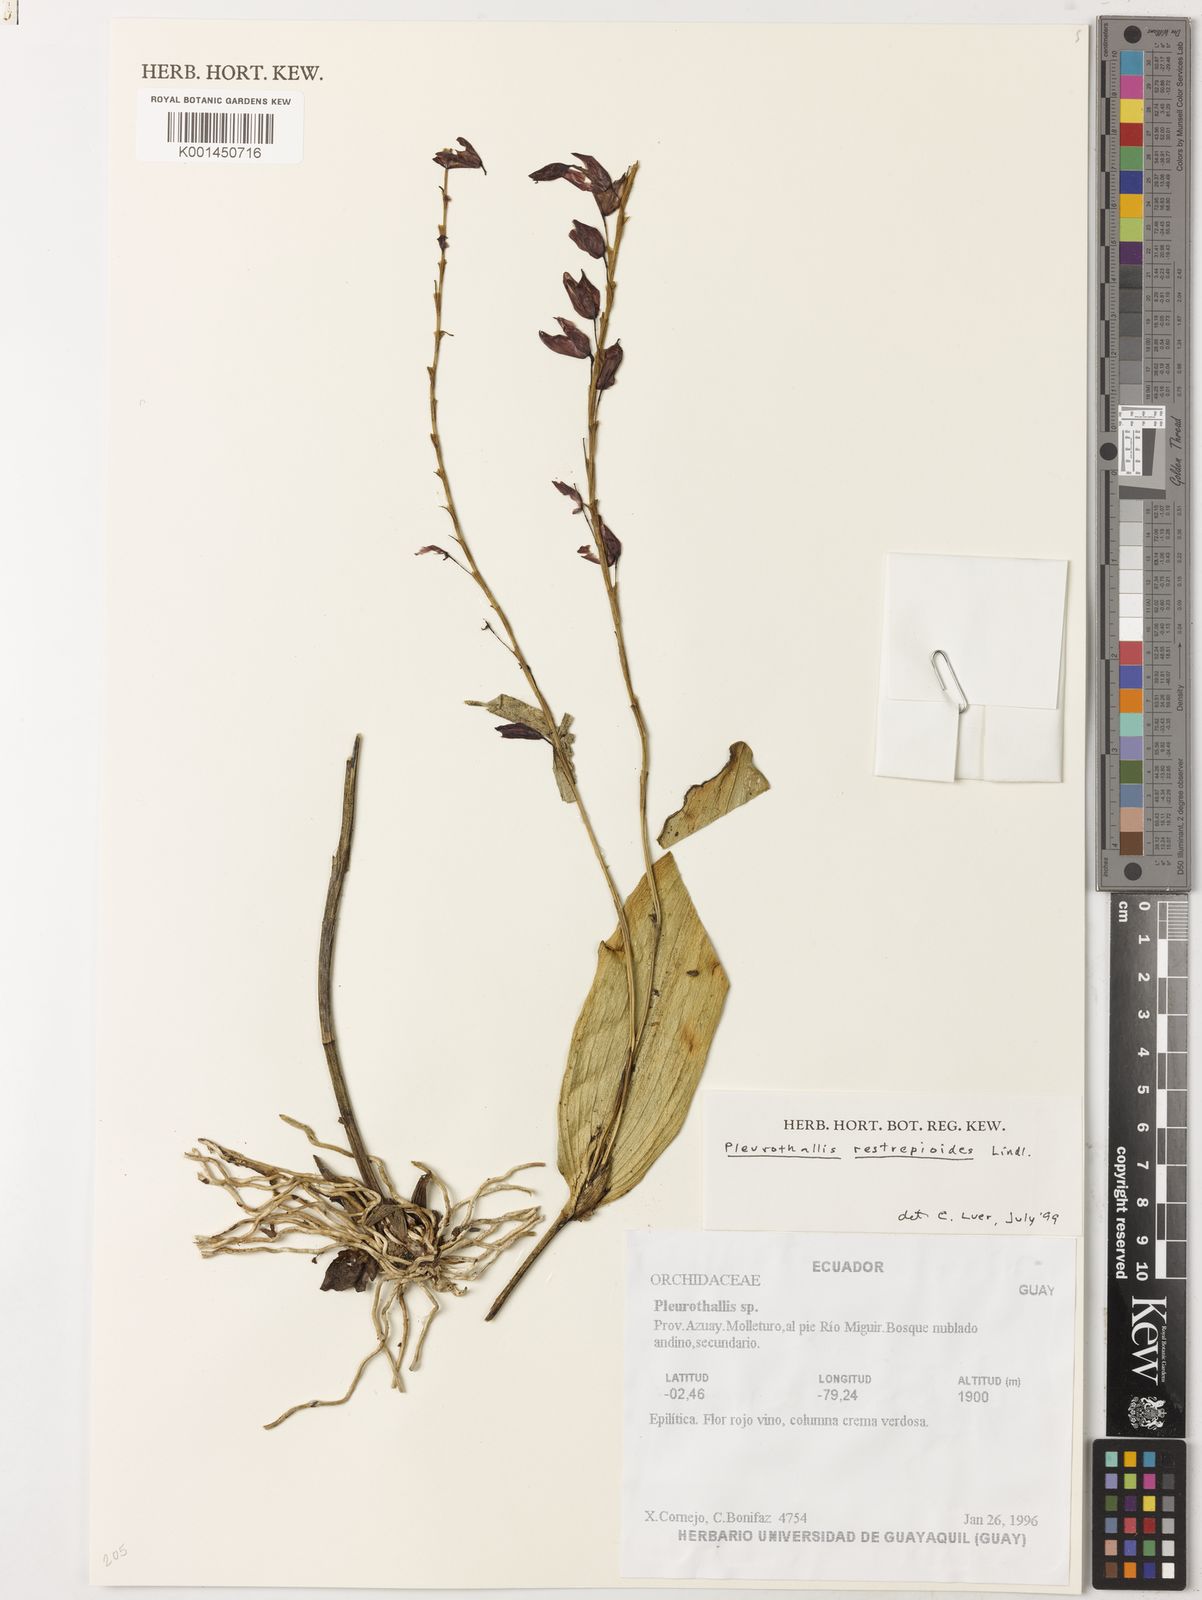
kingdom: Plantae
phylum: Tracheophyta
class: Liliopsida
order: Asparagales
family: Orchidaceae
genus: Pleurothallis
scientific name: Pleurothallis restrepioides
